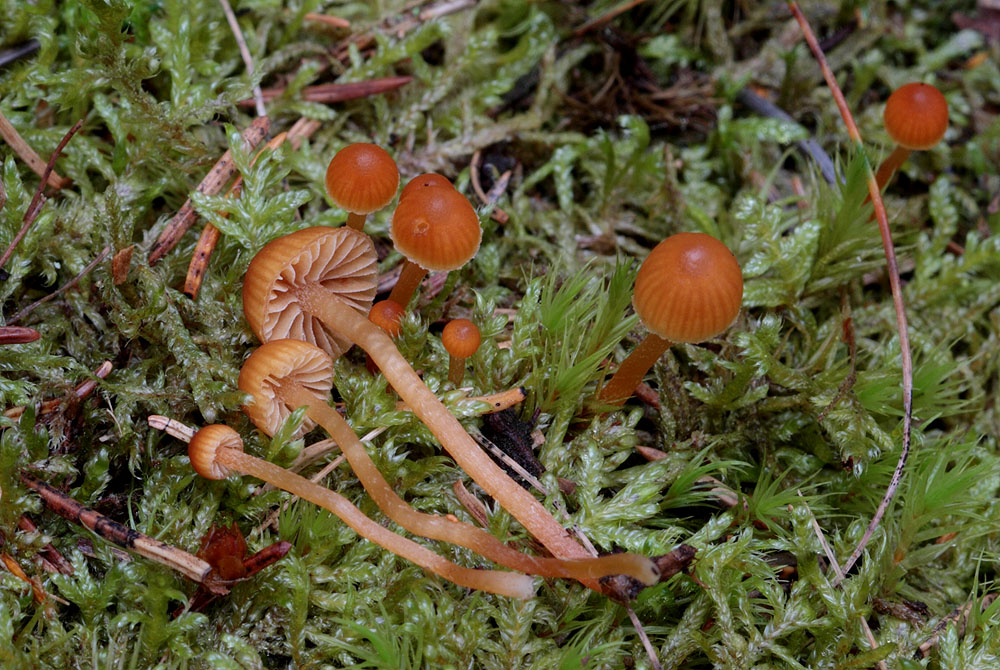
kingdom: Fungi
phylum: Basidiomycota
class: Agaricomycetes
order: Agaricales
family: Hymenogastraceae
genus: Galerina
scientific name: Galerina calyptrata
